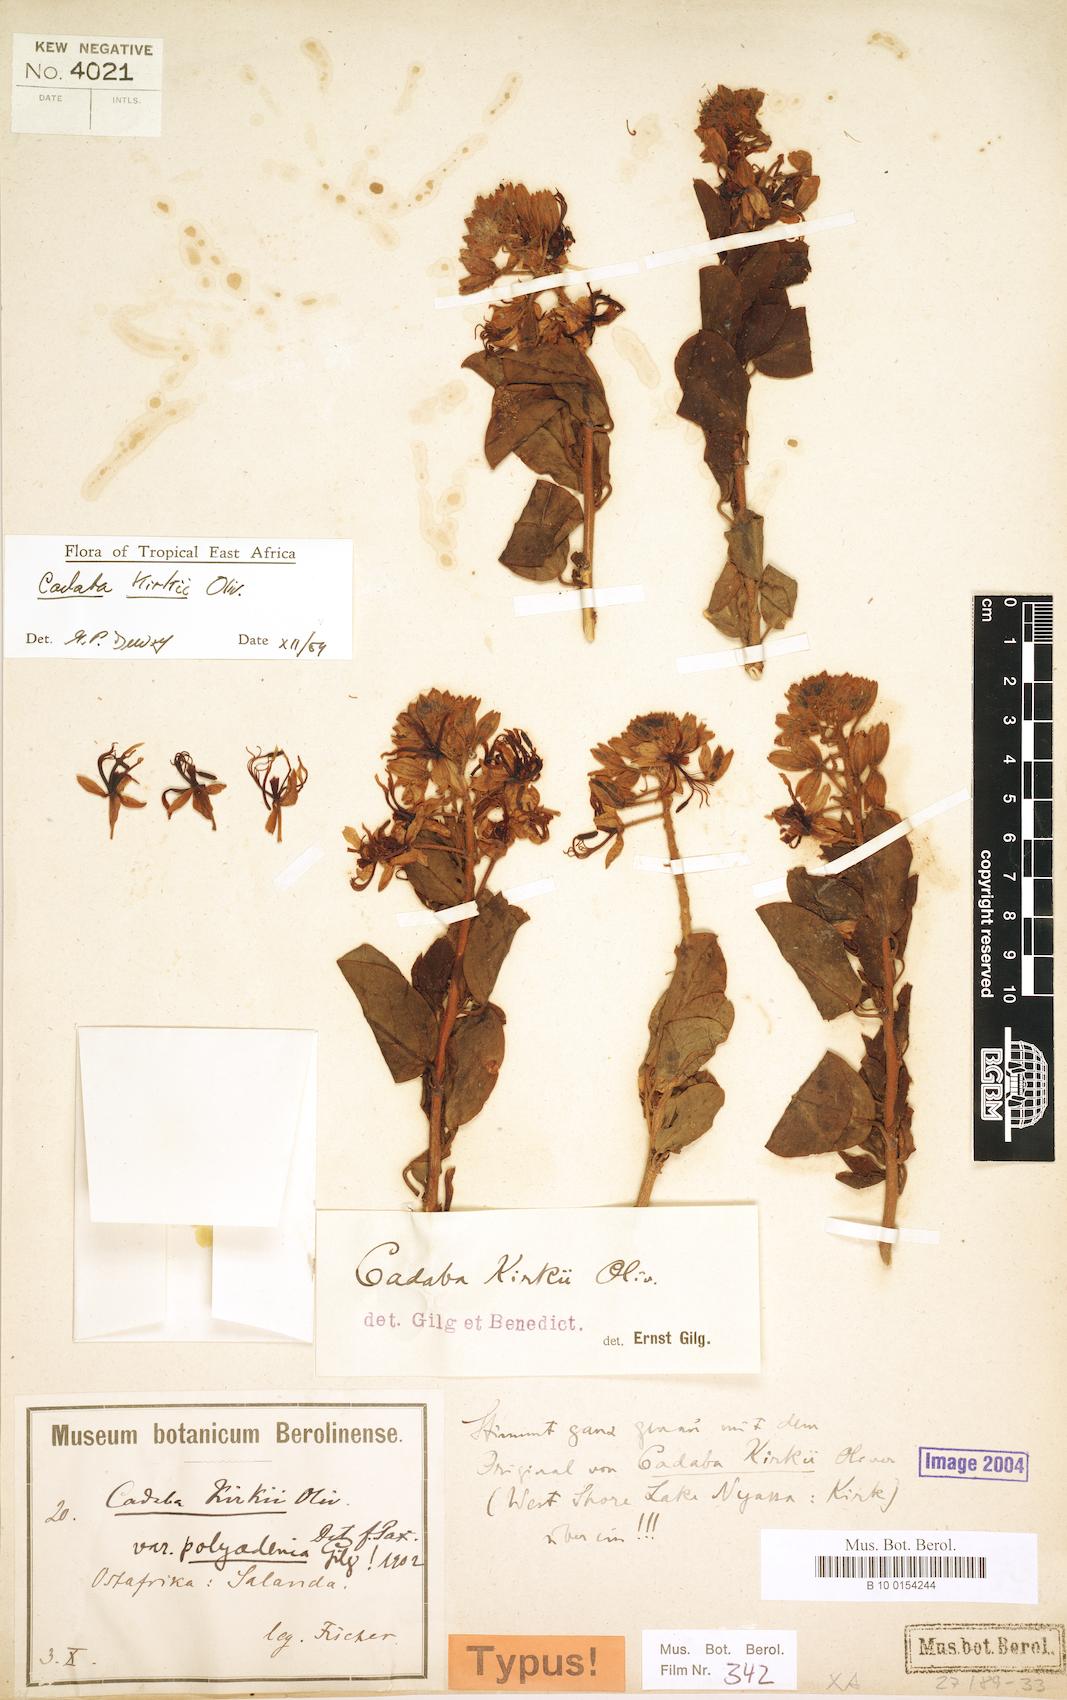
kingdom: Plantae
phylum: Tracheophyta
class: Magnoliopsida
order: Brassicales
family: Capparaceae
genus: Cadaba
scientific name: Cadaba kirkii
